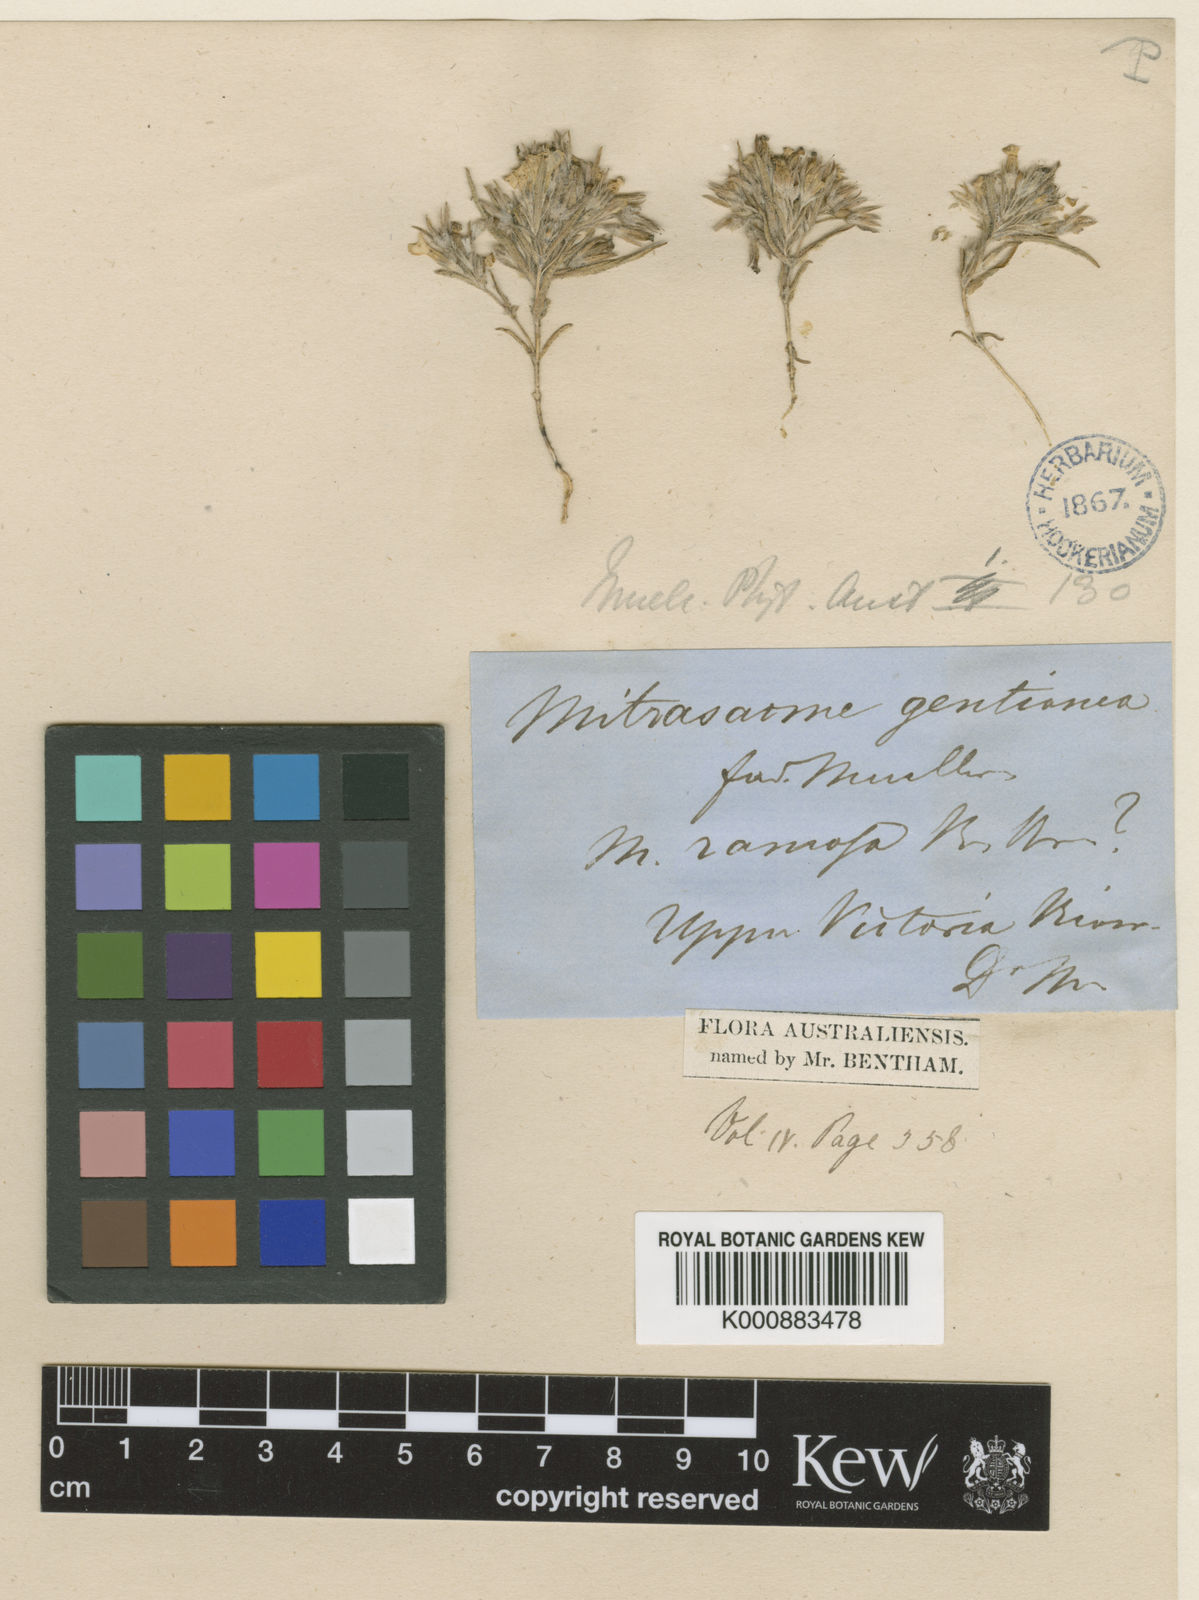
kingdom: Plantae
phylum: Tracheophyta
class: Magnoliopsida
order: Gentianales
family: Loganiaceae
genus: Mitrasacme
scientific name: Mitrasacme gentianea
